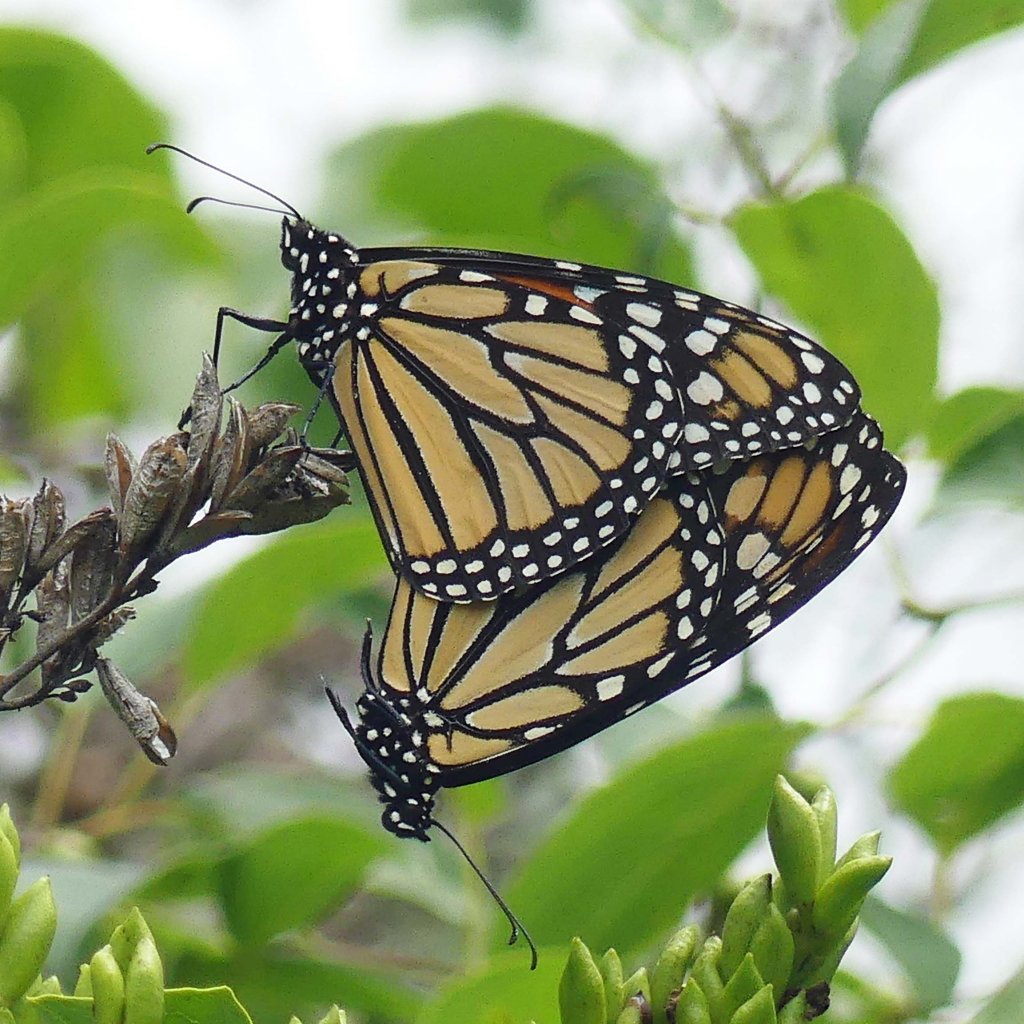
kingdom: Animalia
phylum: Arthropoda
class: Insecta
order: Lepidoptera
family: Nymphalidae
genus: Danaus
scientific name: Danaus plexippus
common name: Monarch
